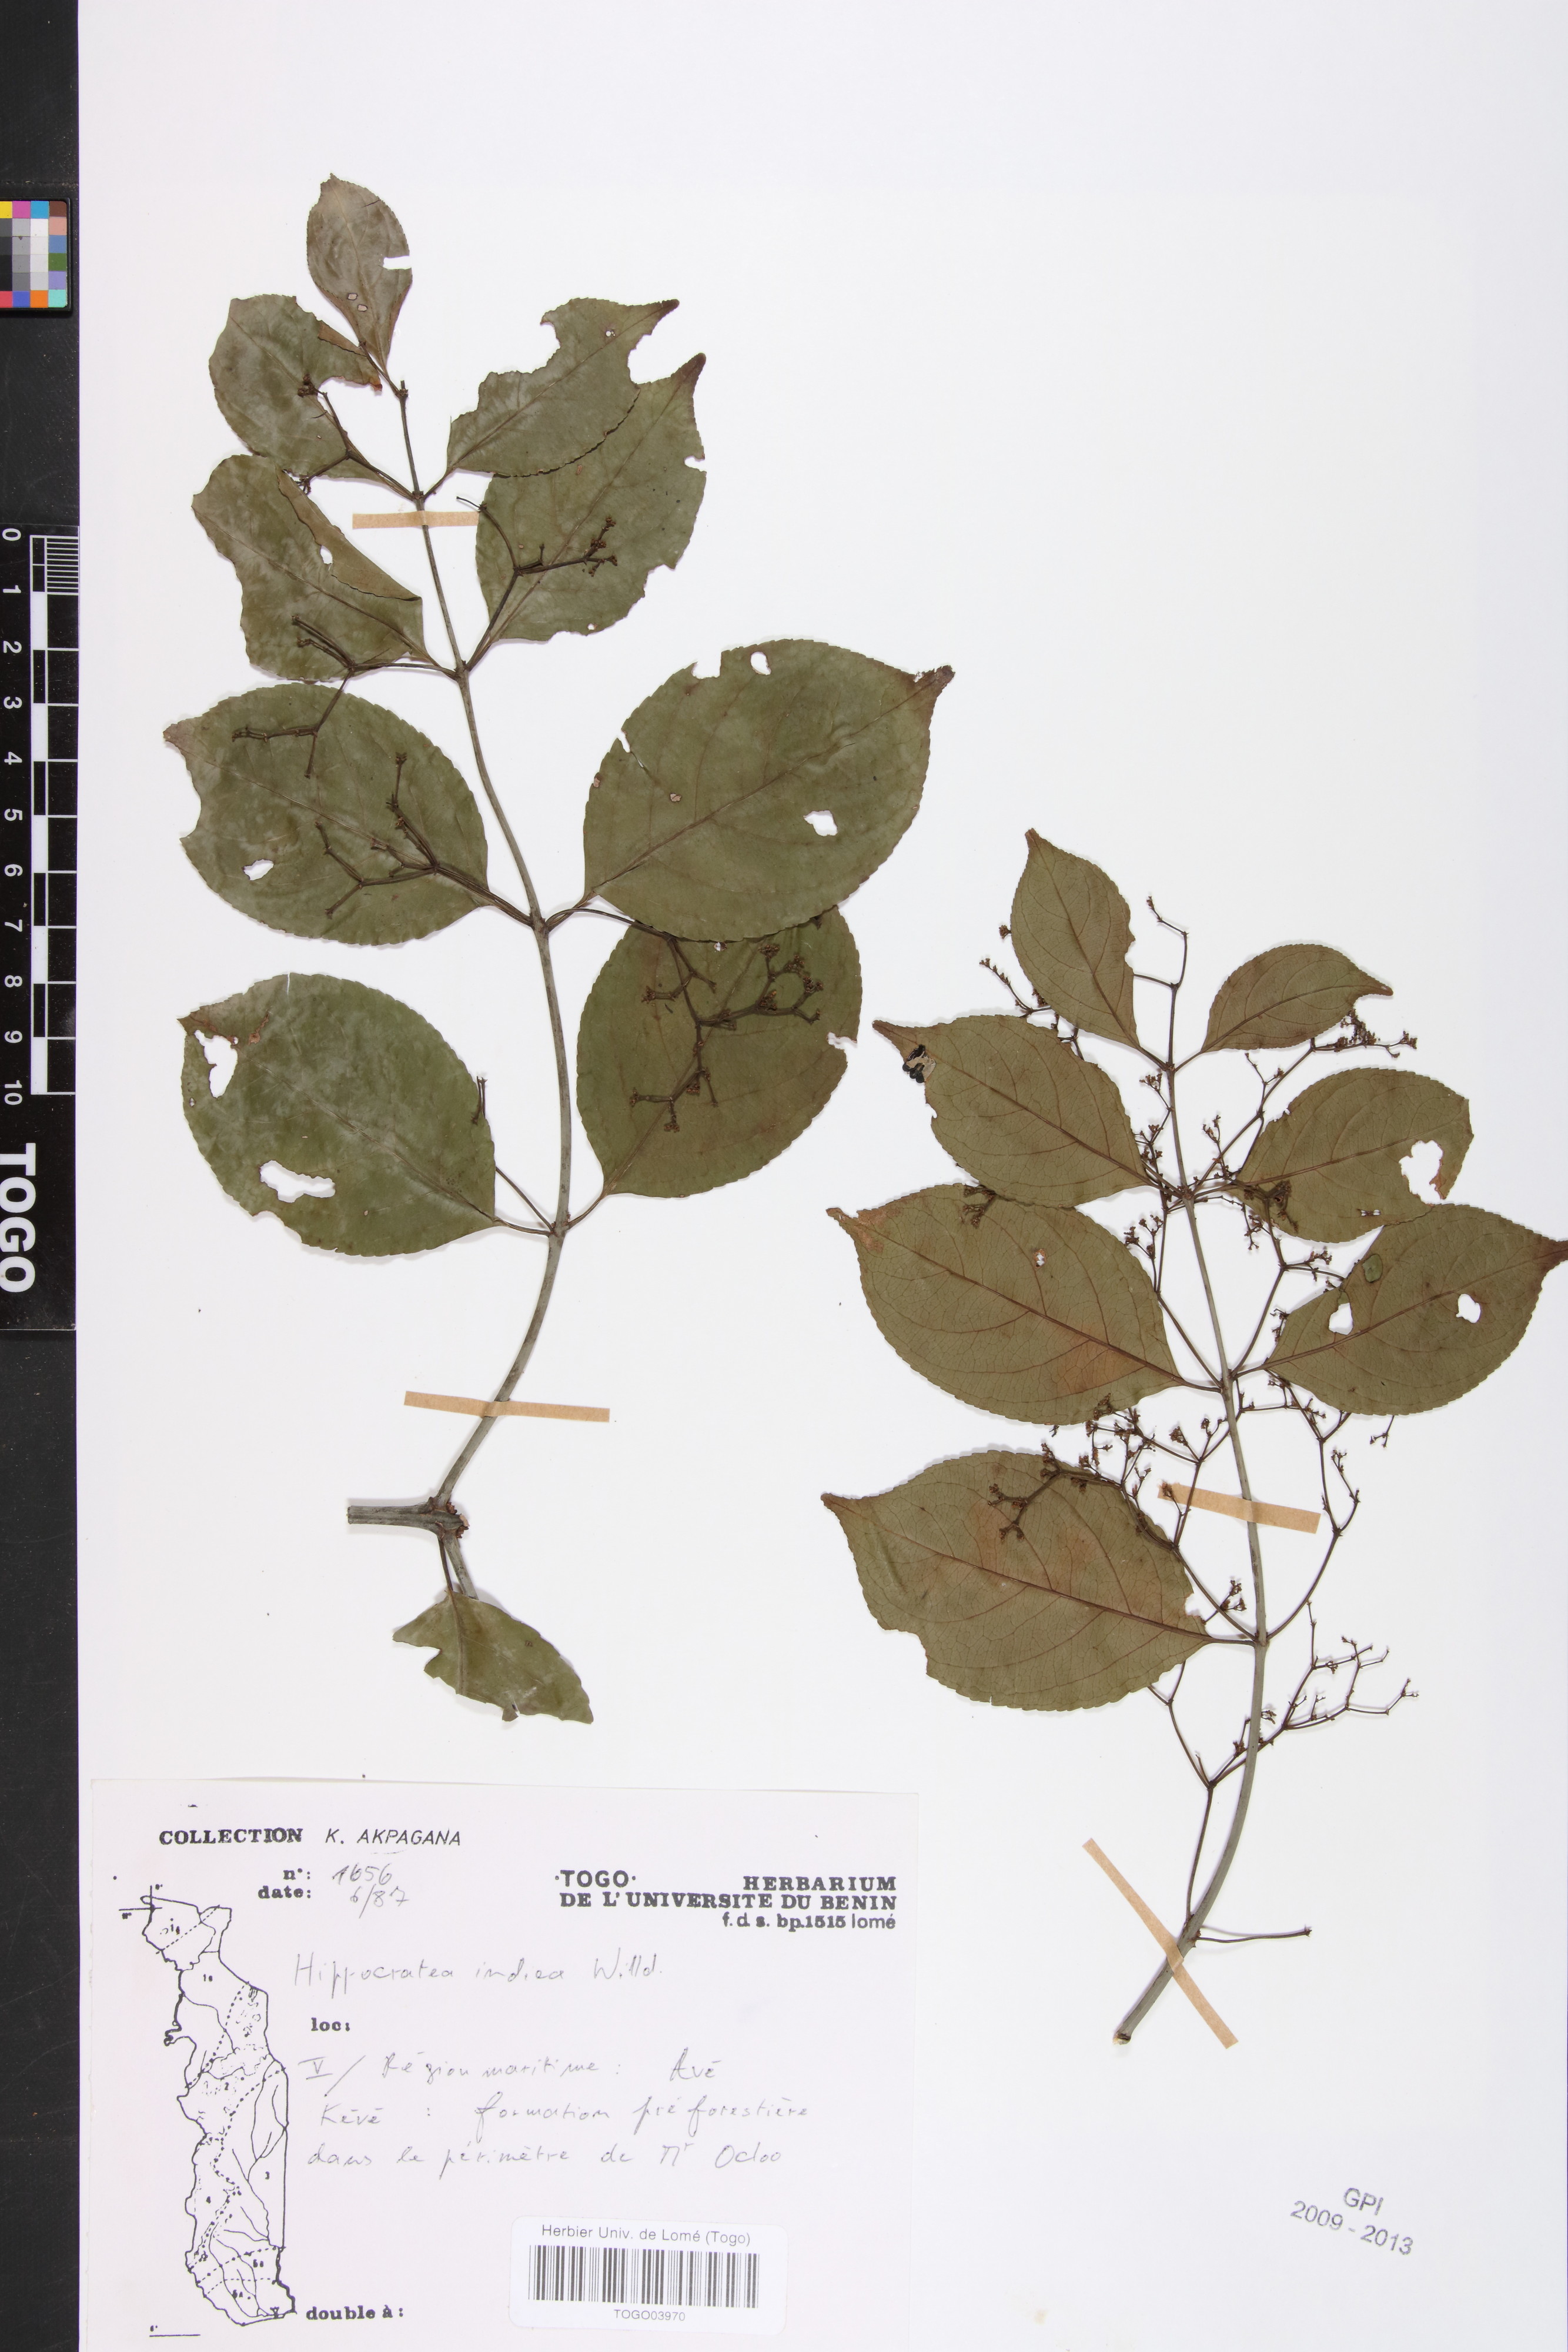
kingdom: Plantae
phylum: Tracheophyta
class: Magnoliopsida
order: Celastrales
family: Celastraceae
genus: Reissantia
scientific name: Reissantia indica
